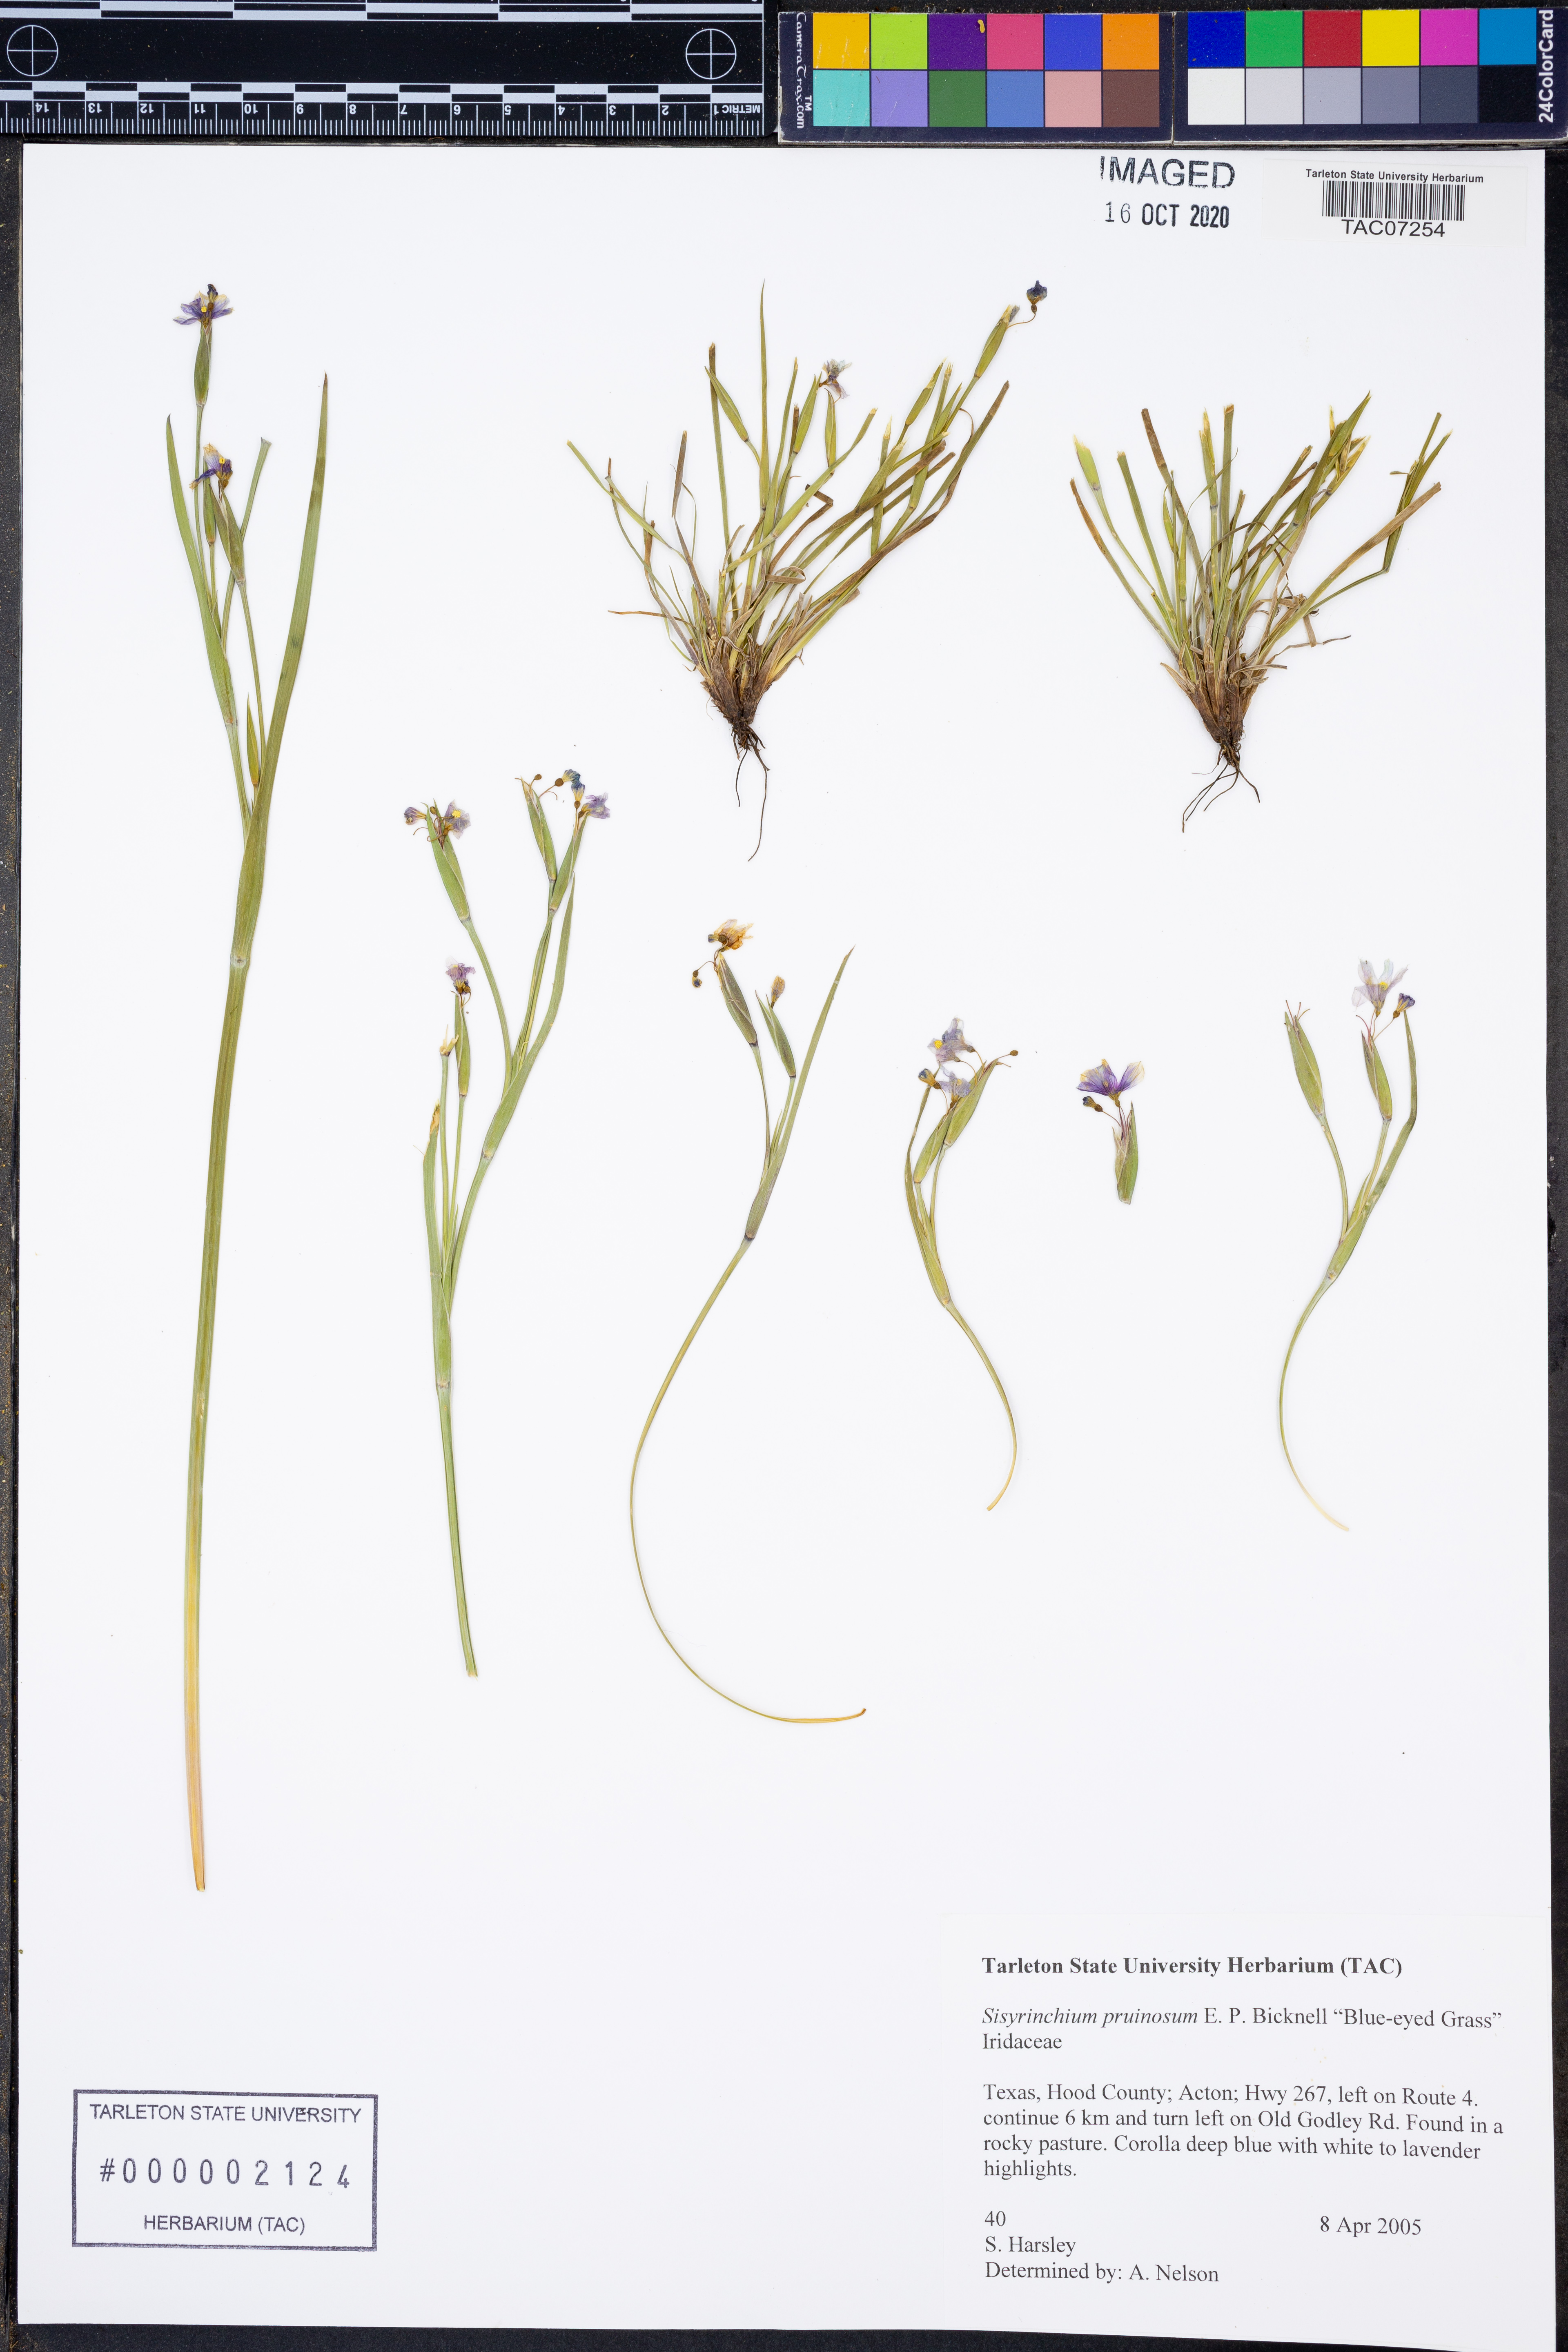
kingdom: Plantae
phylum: Tracheophyta
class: Liliopsida
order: Asparagales
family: Iridaceae
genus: Sisyrinchium
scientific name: Sisyrinchium pruinosum
